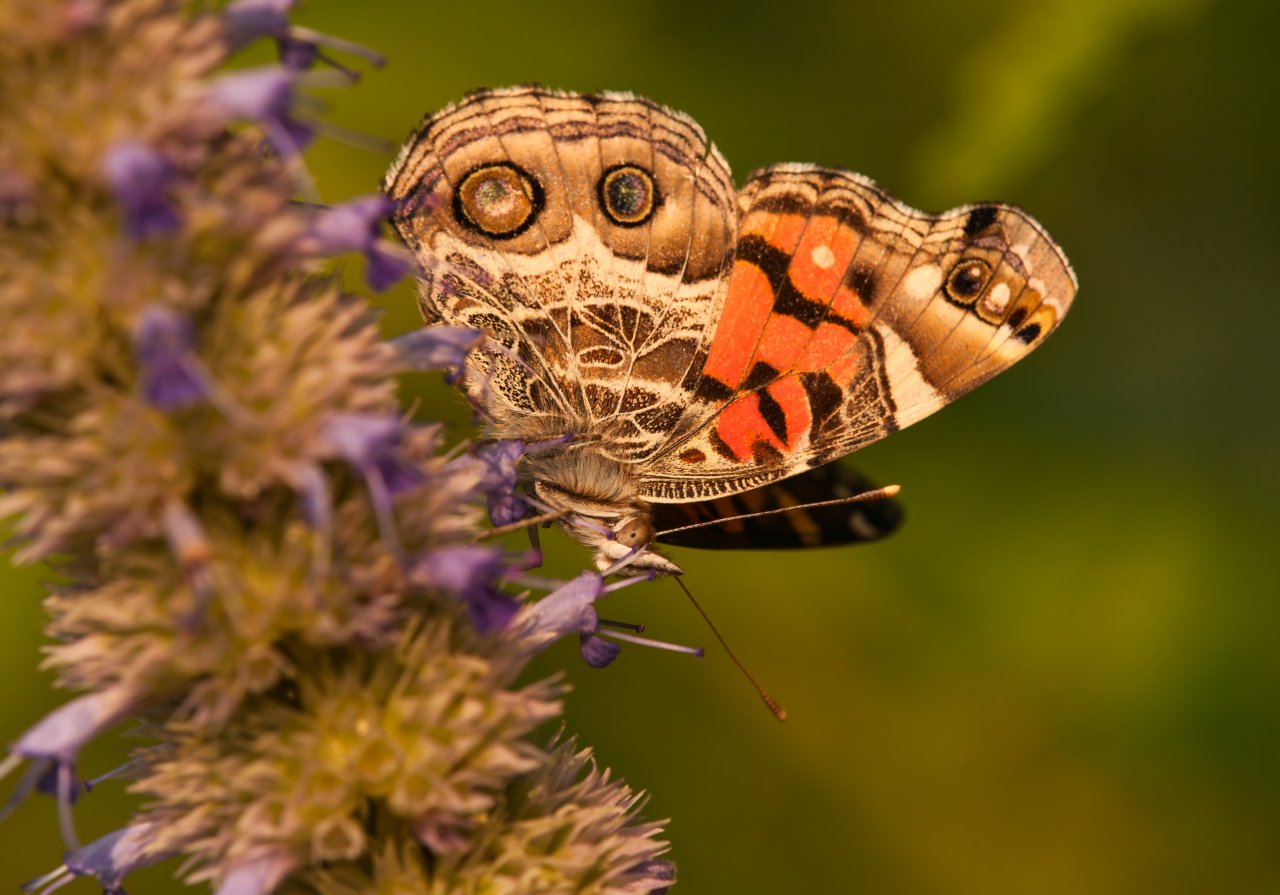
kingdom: Animalia
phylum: Arthropoda
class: Insecta
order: Lepidoptera
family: Nymphalidae
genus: Vanessa
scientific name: Vanessa virginiensis
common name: American Lady
